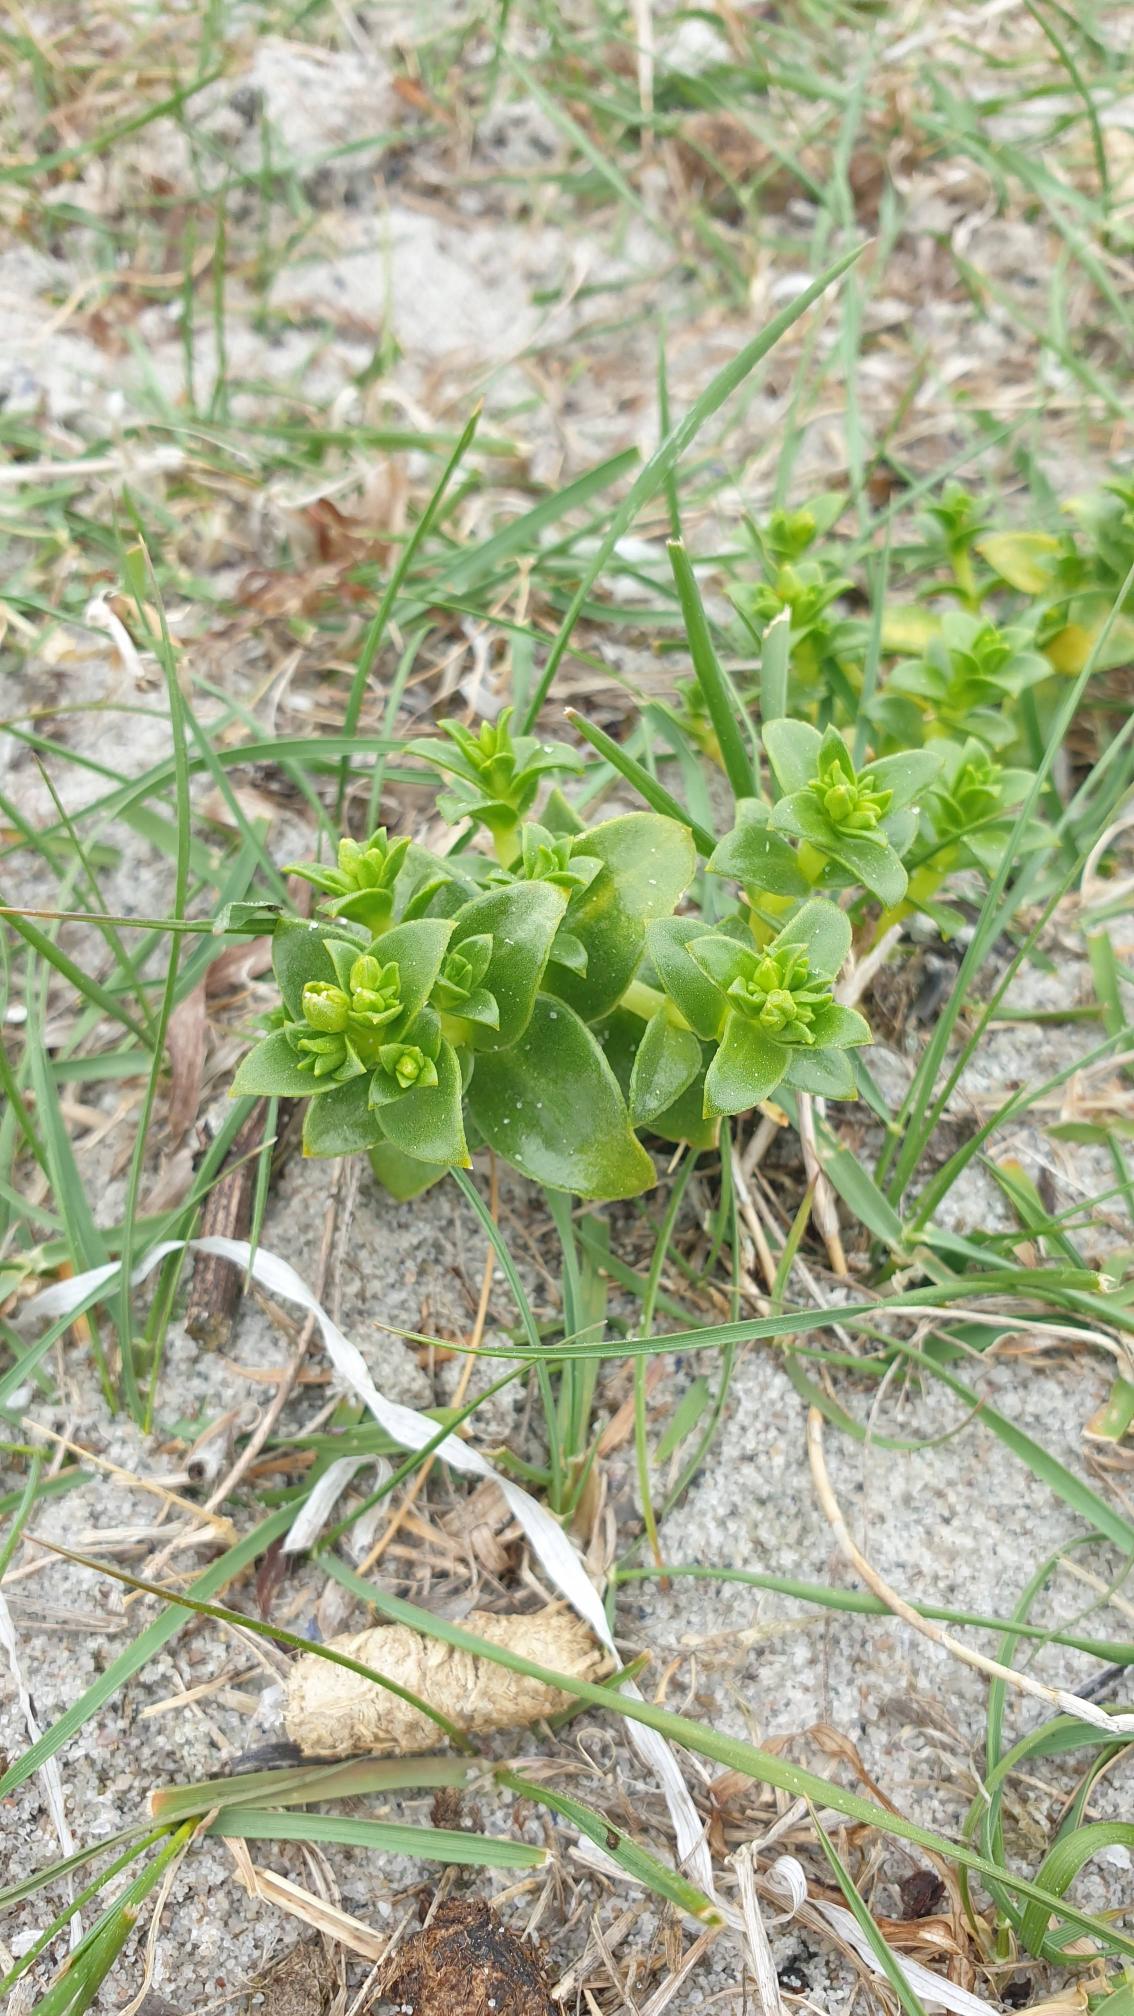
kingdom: Plantae
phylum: Tracheophyta
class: Magnoliopsida
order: Caryophyllales
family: Caryophyllaceae
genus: Honckenya
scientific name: Honckenya peploides
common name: Strandarve
